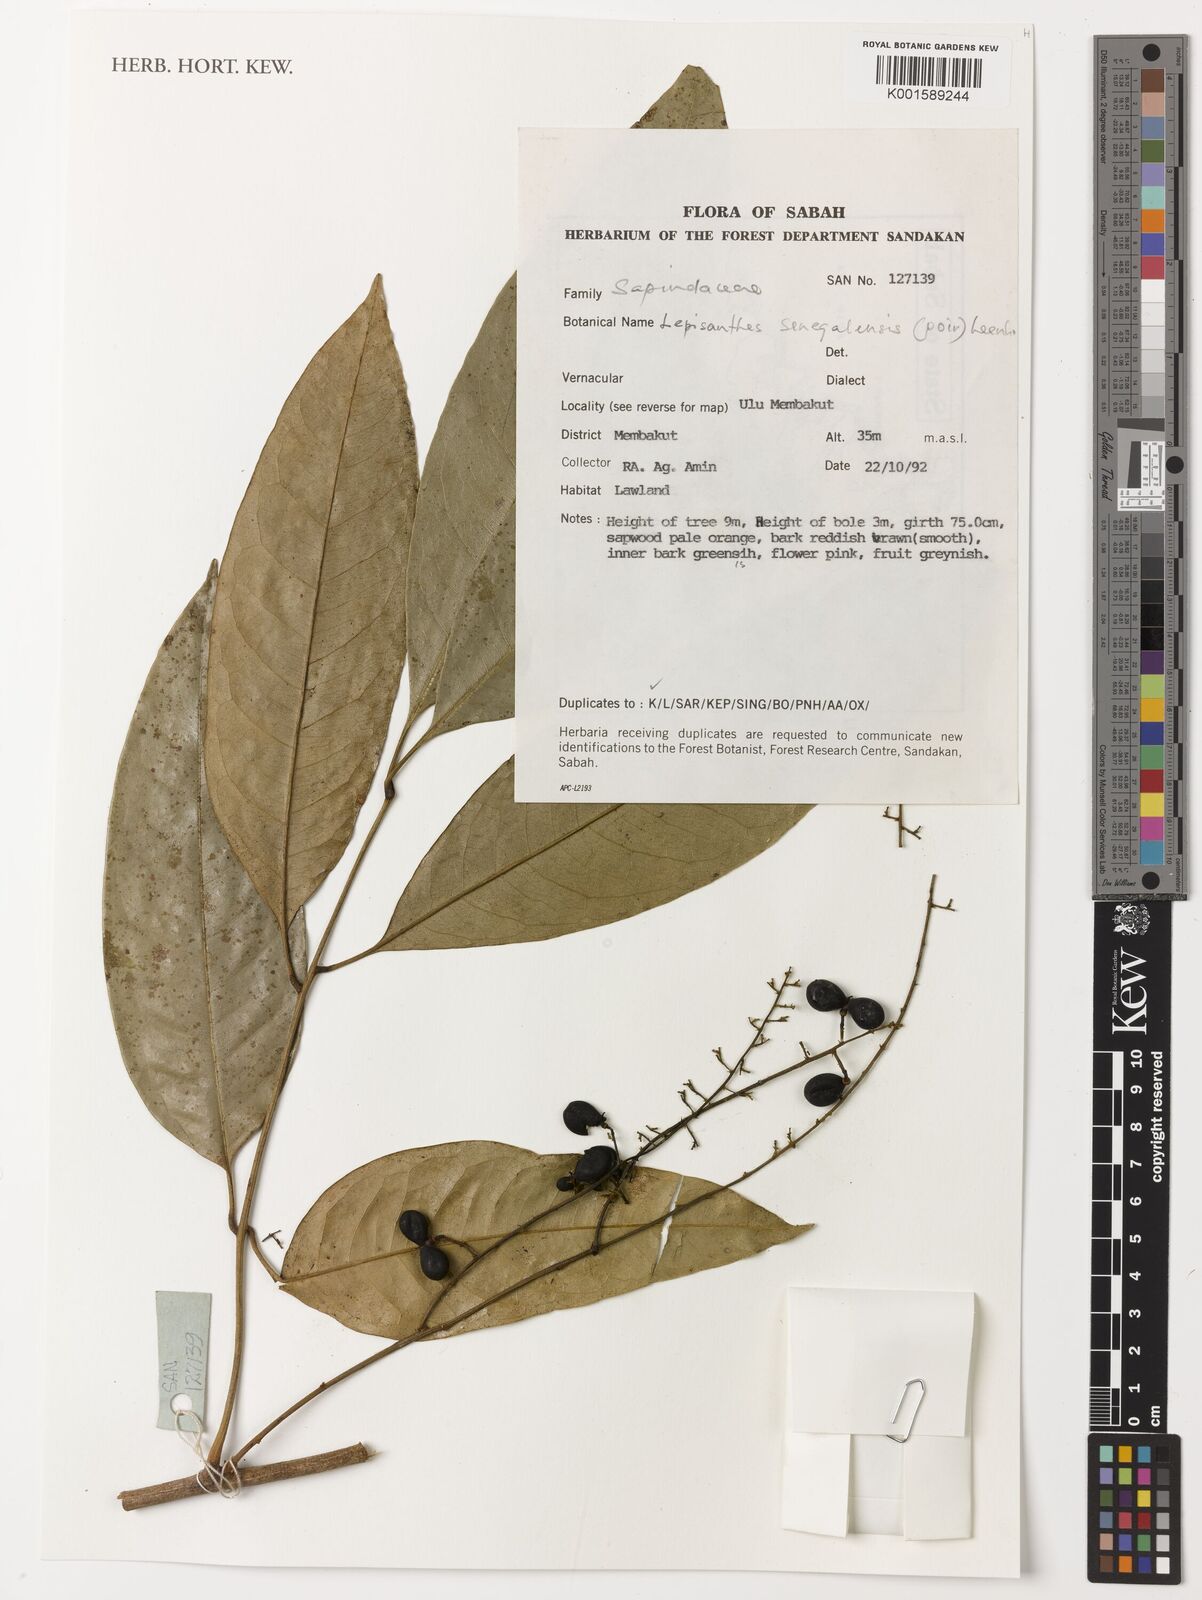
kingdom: Plantae
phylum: Tracheophyta
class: Magnoliopsida
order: Sapindales
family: Sapindaceae
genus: Lepisanthes
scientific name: Lepisanthes senegalensis
